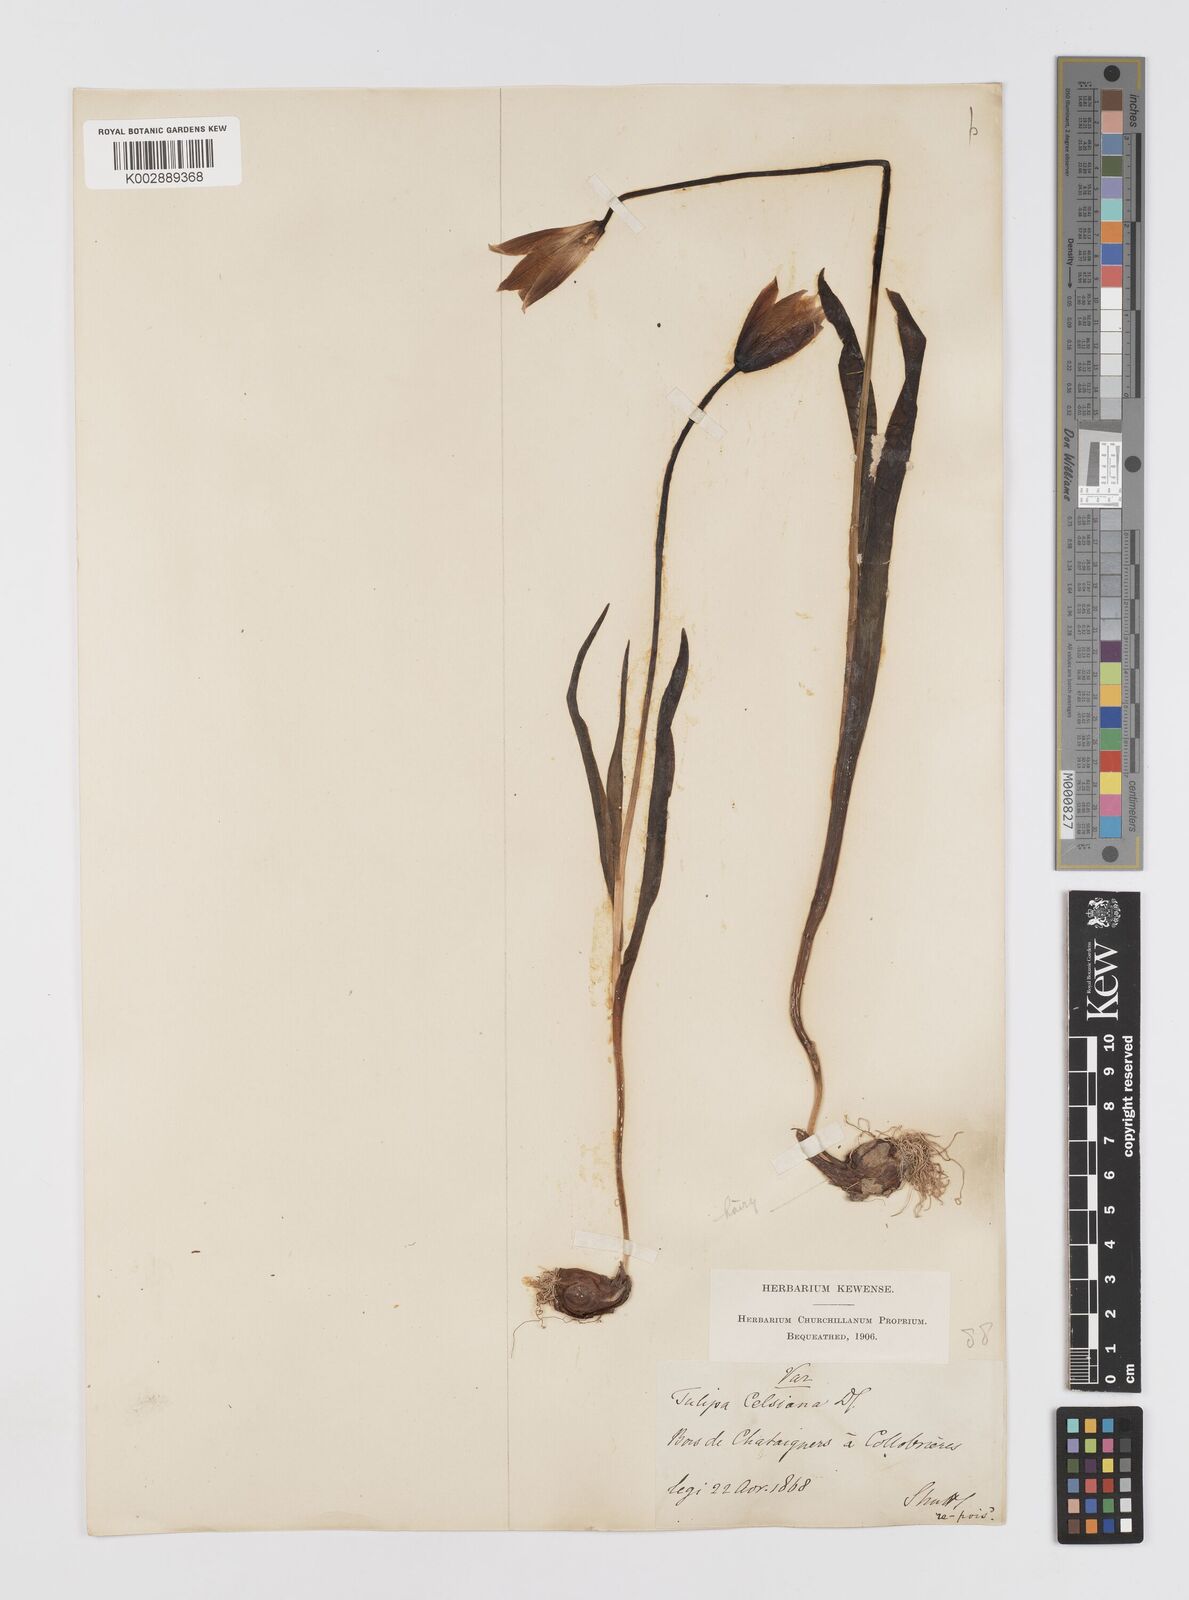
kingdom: Plantae
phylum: Tracheophyta
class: Liliopsida
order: Liliales
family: Liliaceae
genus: Tulipa
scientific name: Tulipa sylvestris
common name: Wild tulip
